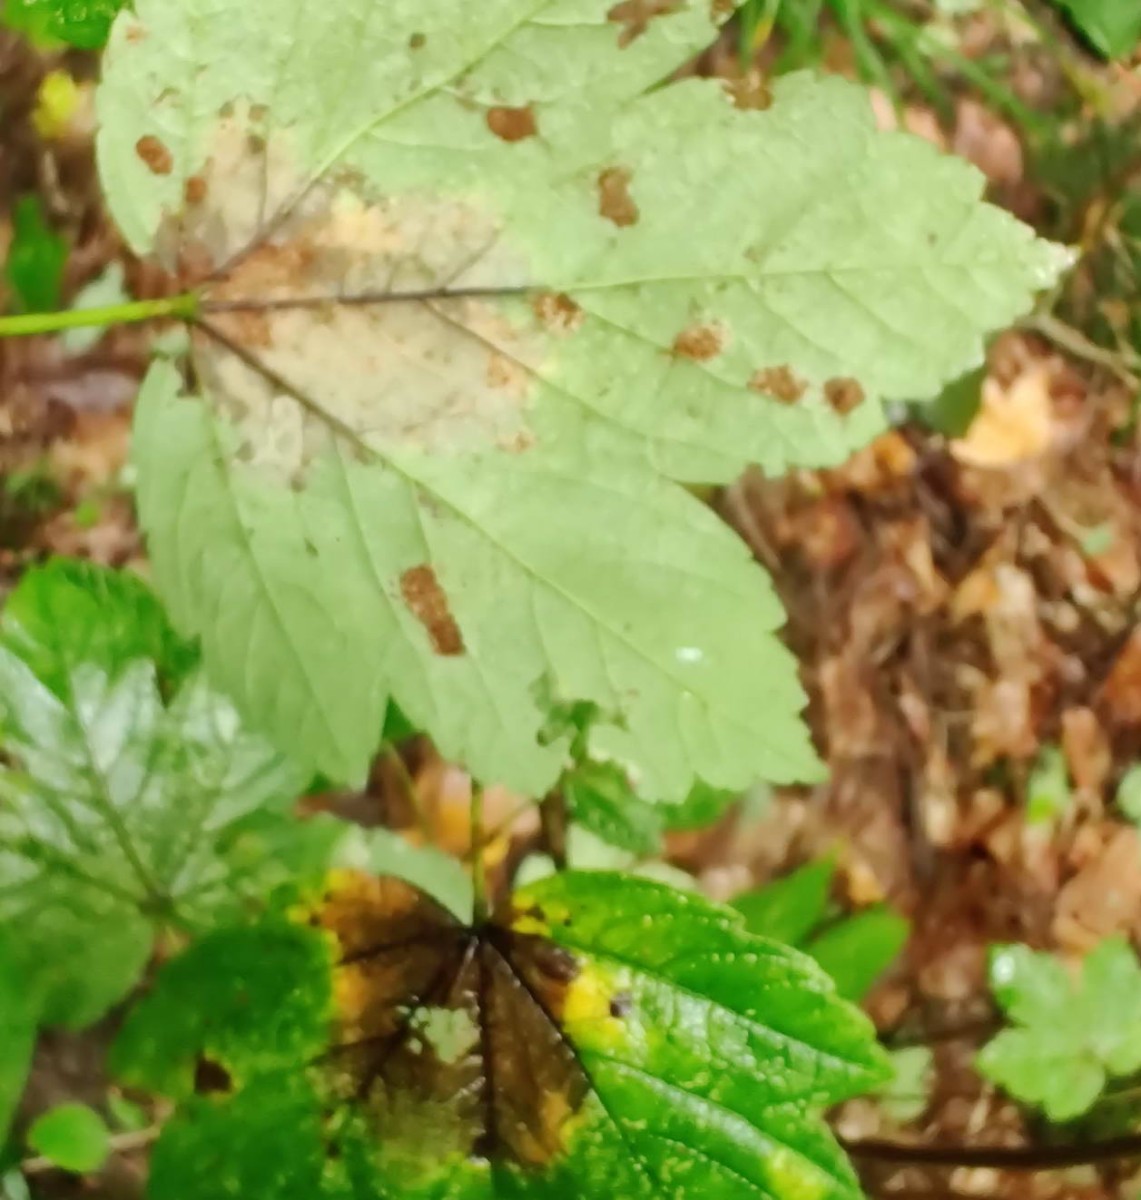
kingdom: Fungi
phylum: Ascomycota
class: Sordariomycetes
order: Diaporthales
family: Gnomoniaceae
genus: Pleuroceras
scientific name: Pleuroceras pseudoplatani
